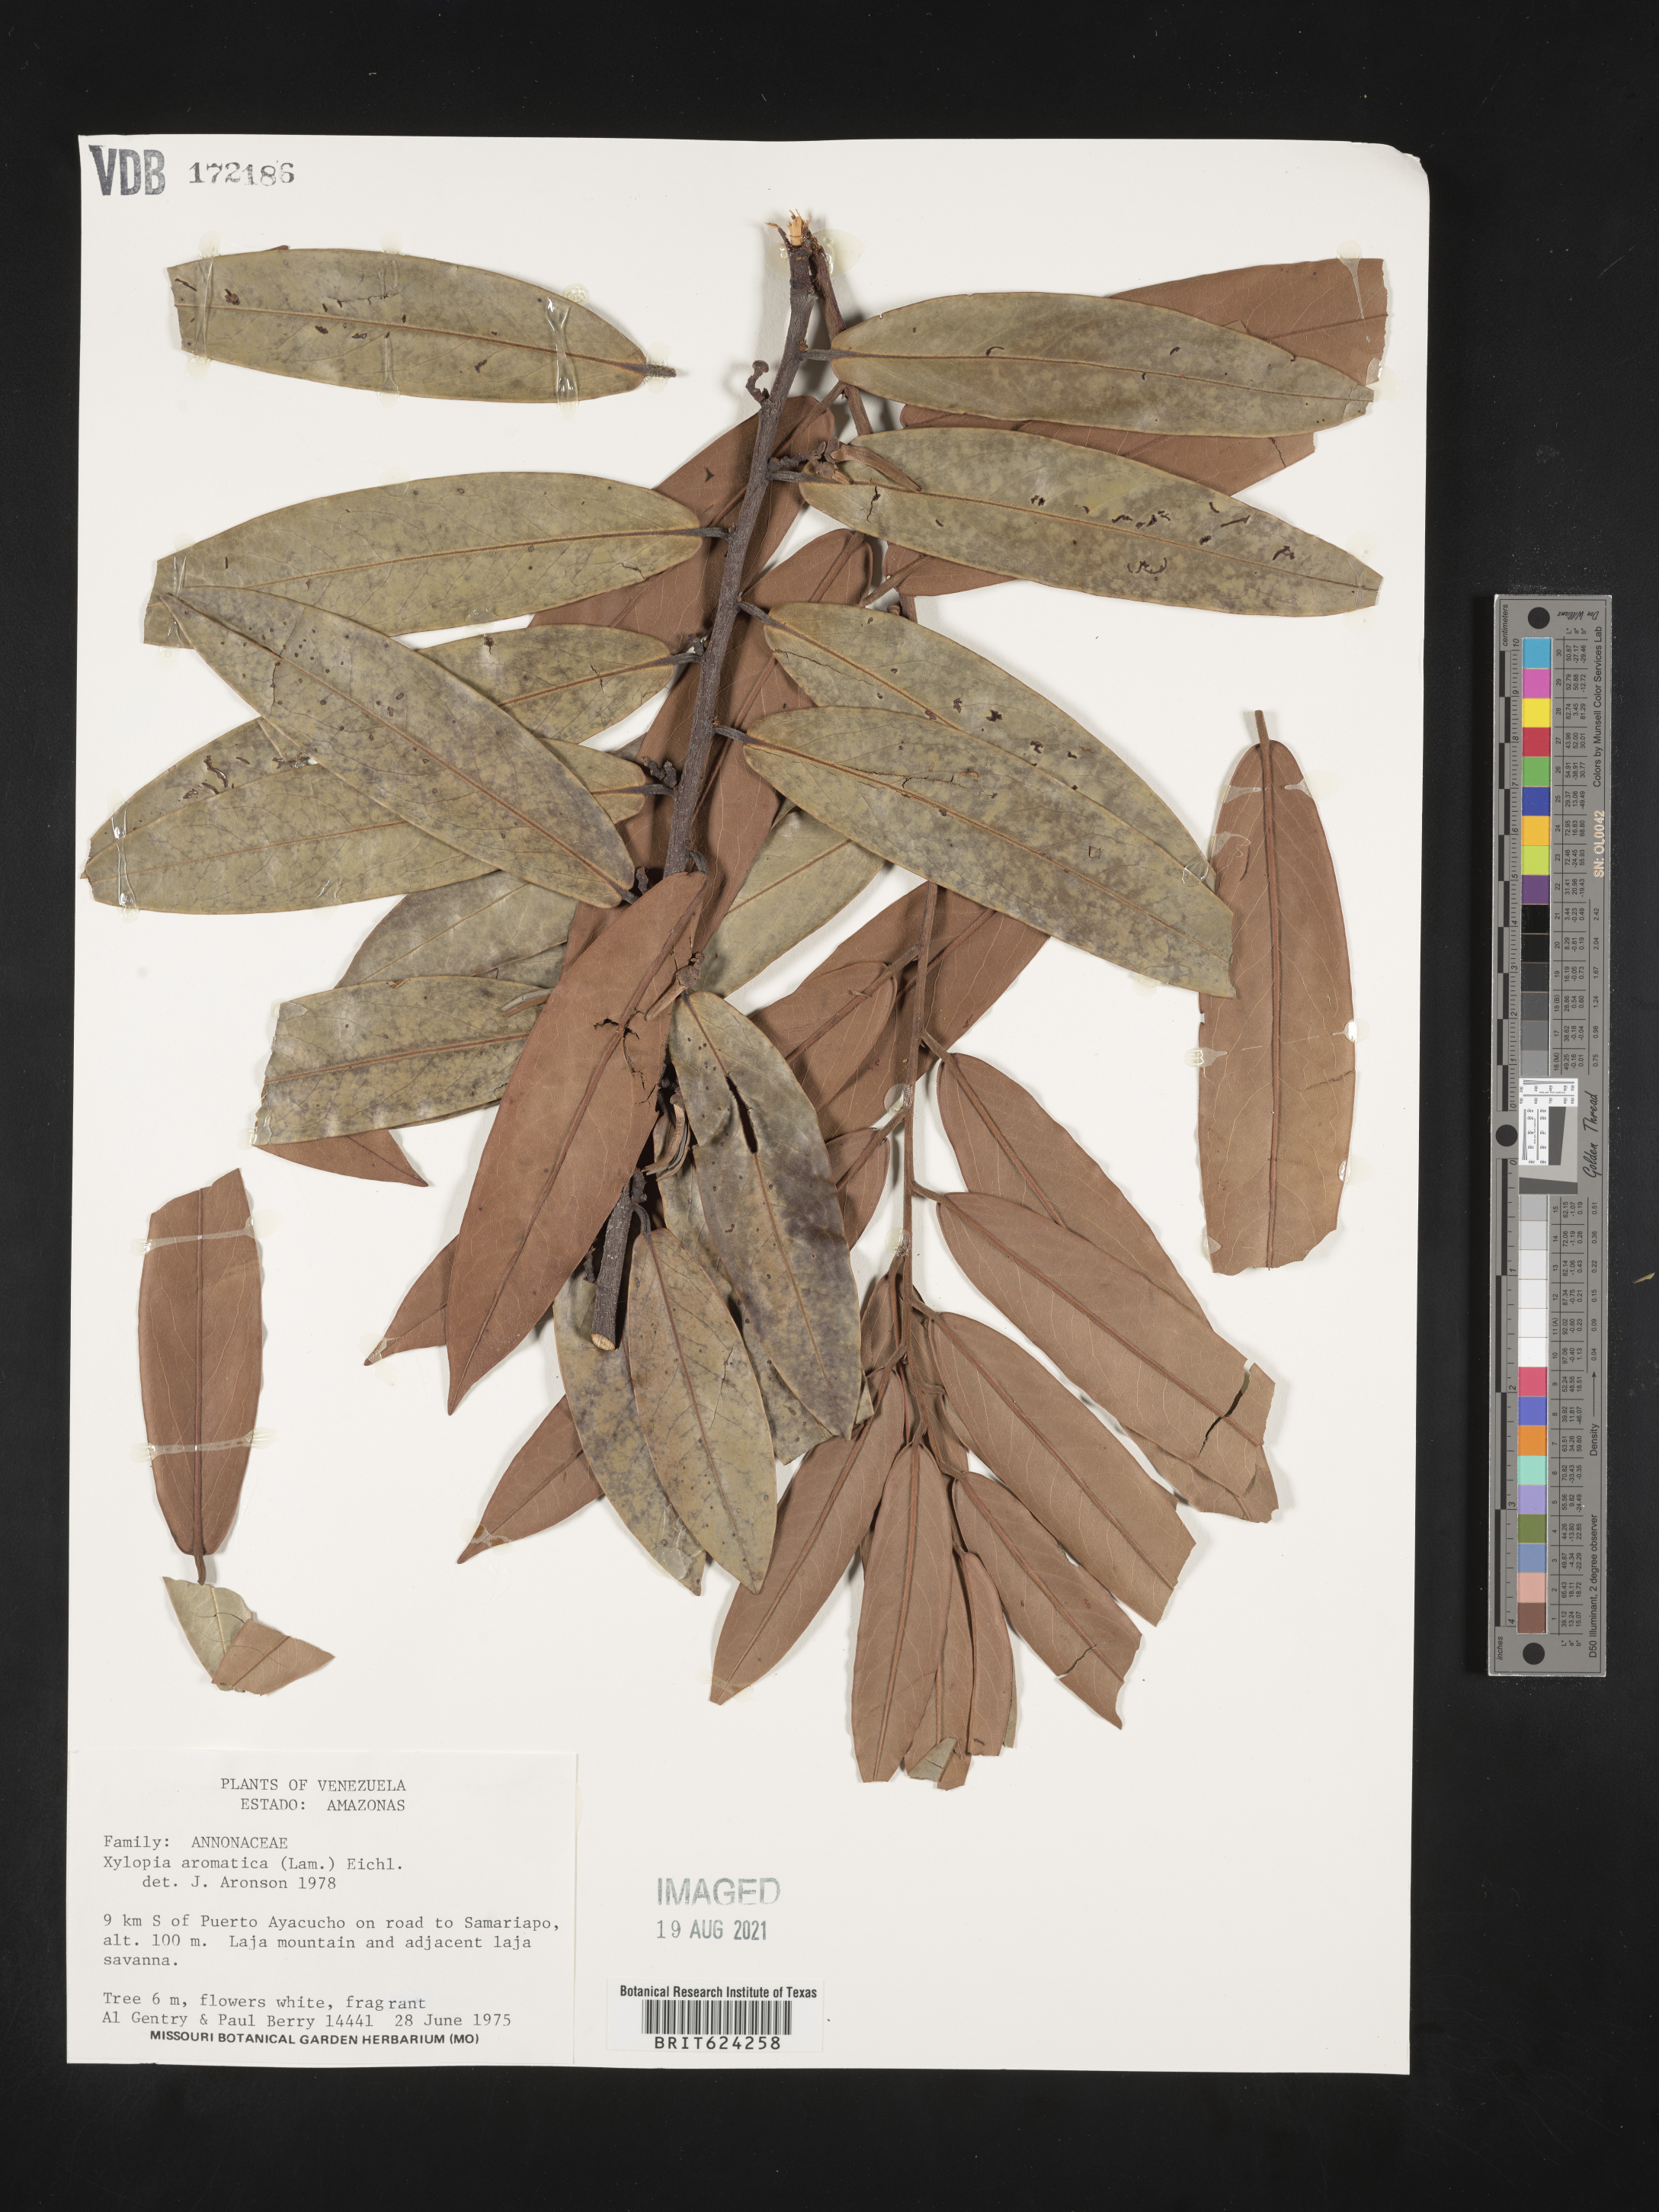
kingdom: Plantae
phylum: Tracheophyta
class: Magnoliopsida
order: Magnoliales
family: Annonaceae
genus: Xylopia
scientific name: Xylopia aromatica
